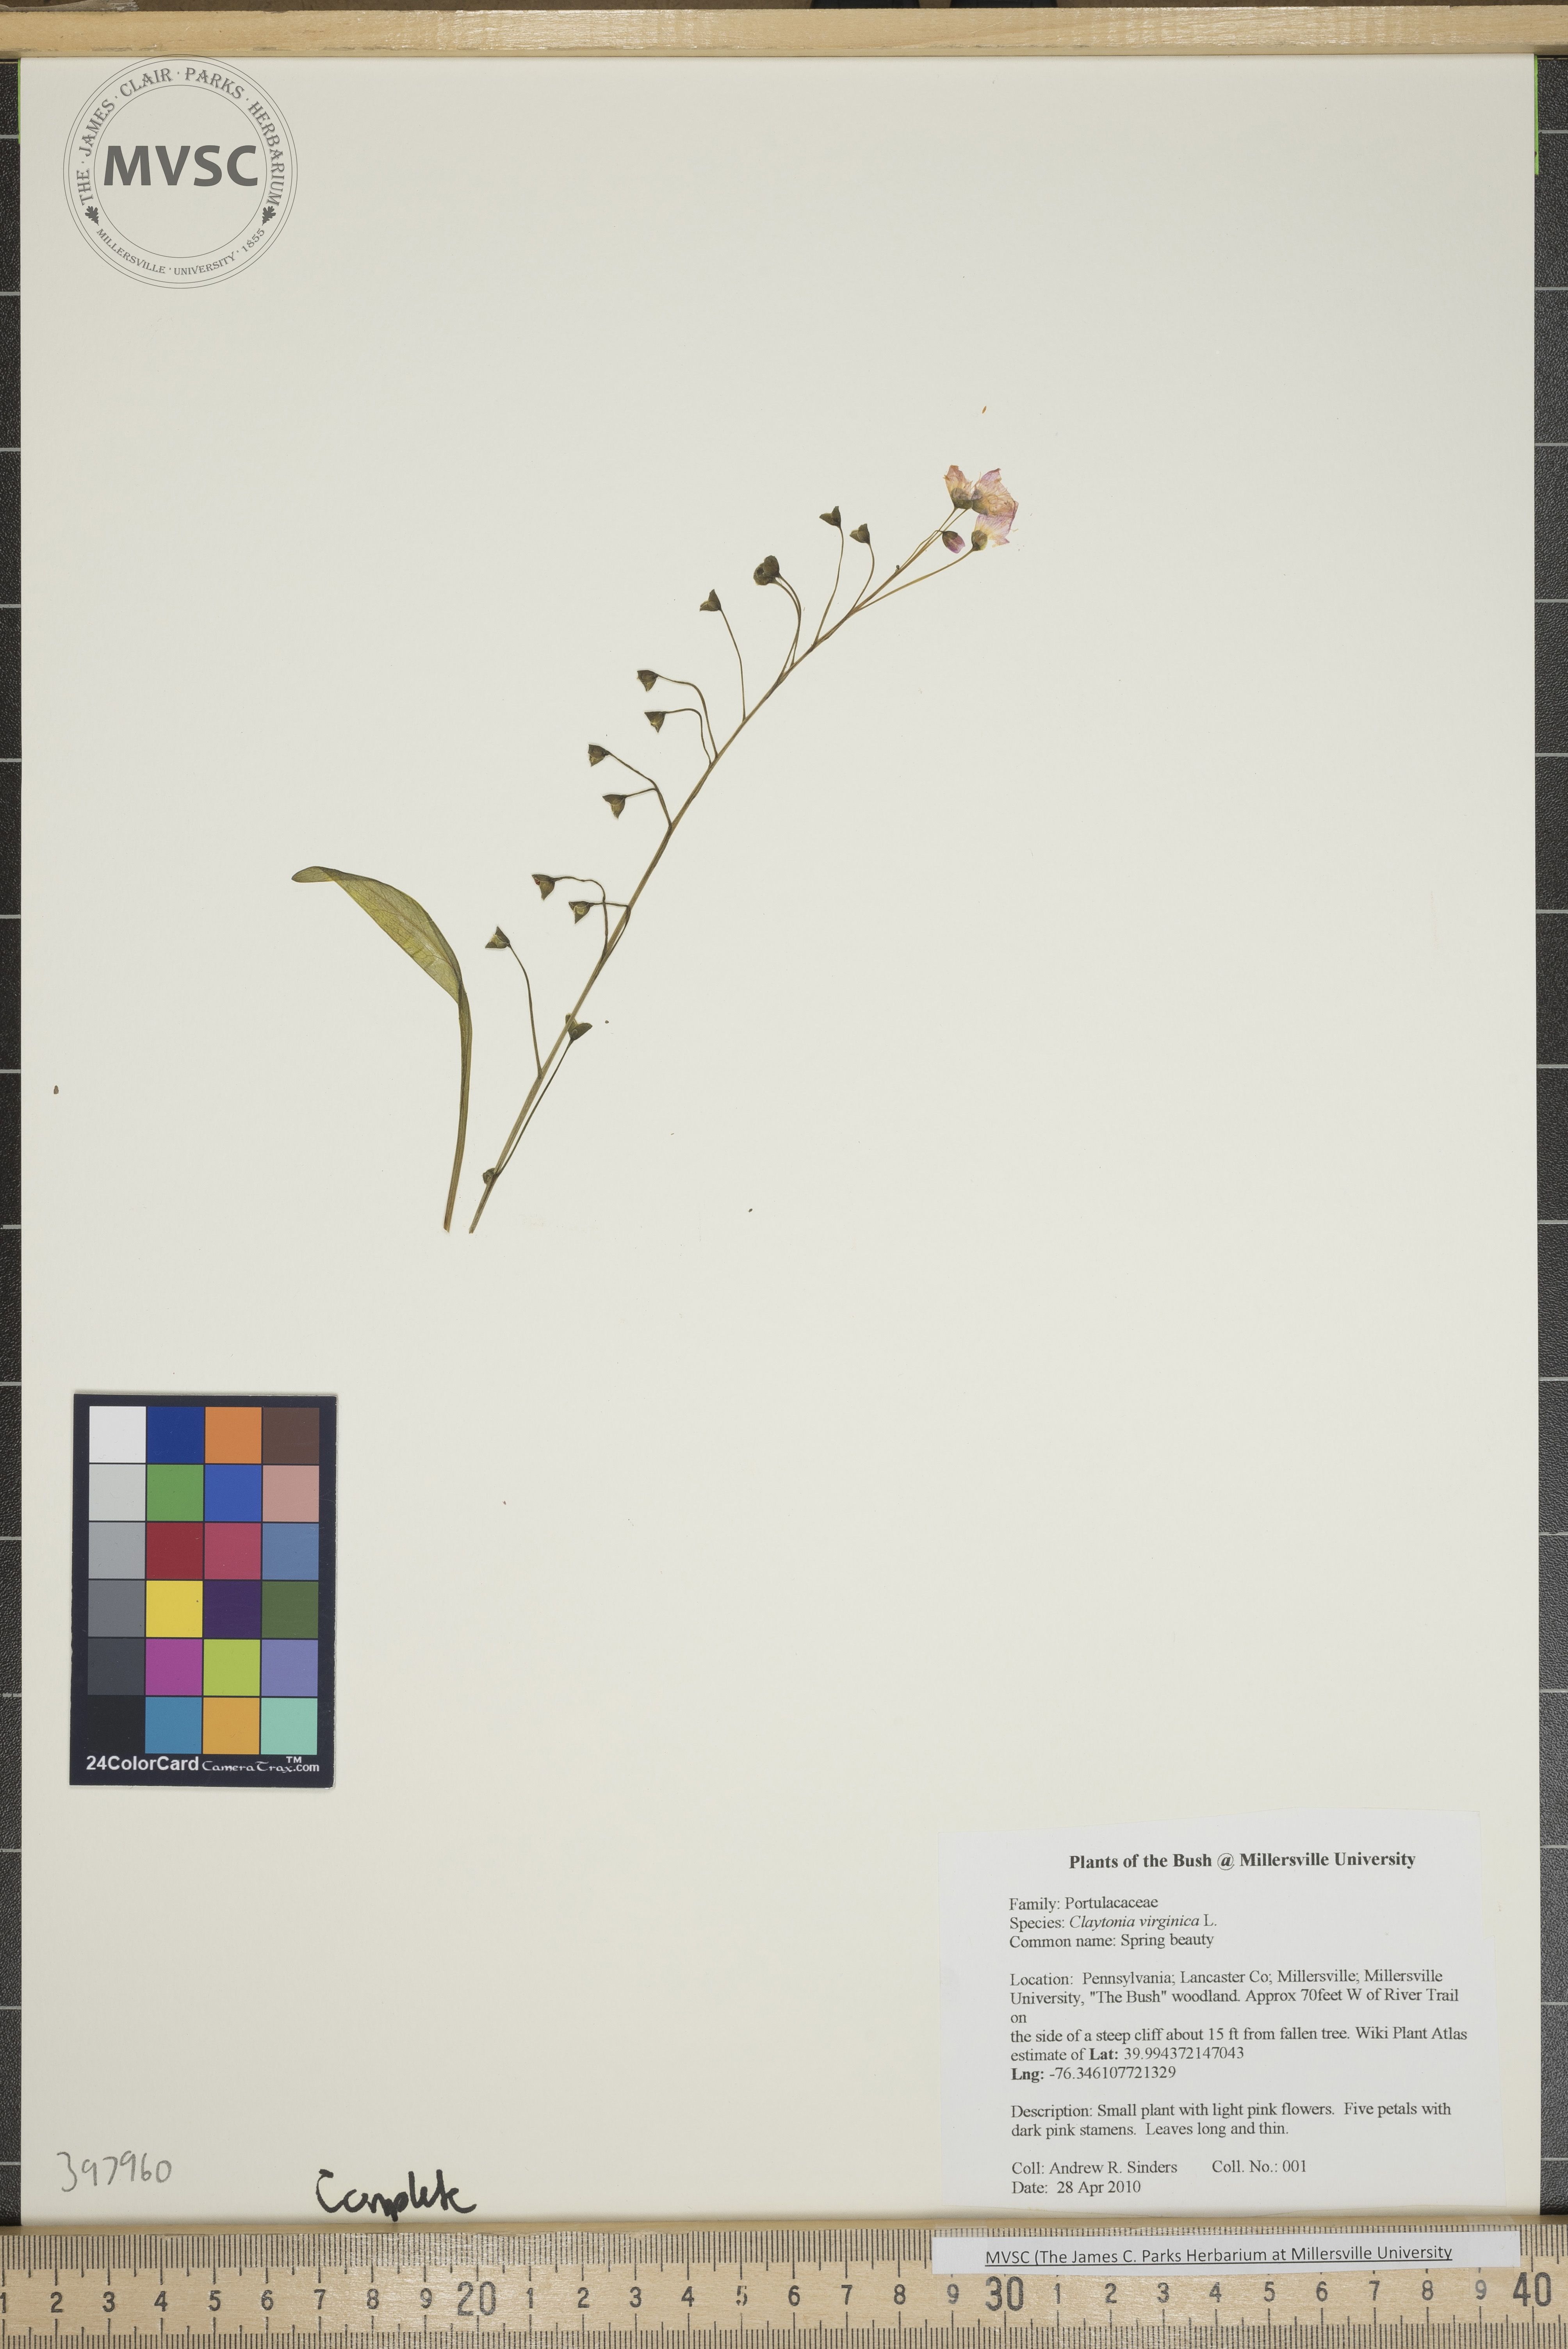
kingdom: Plantae
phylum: Tracheophyta
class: Magnoliopsida
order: Caryophyllales
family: Montiaceae
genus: Claytonia
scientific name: Claytonia virginica
